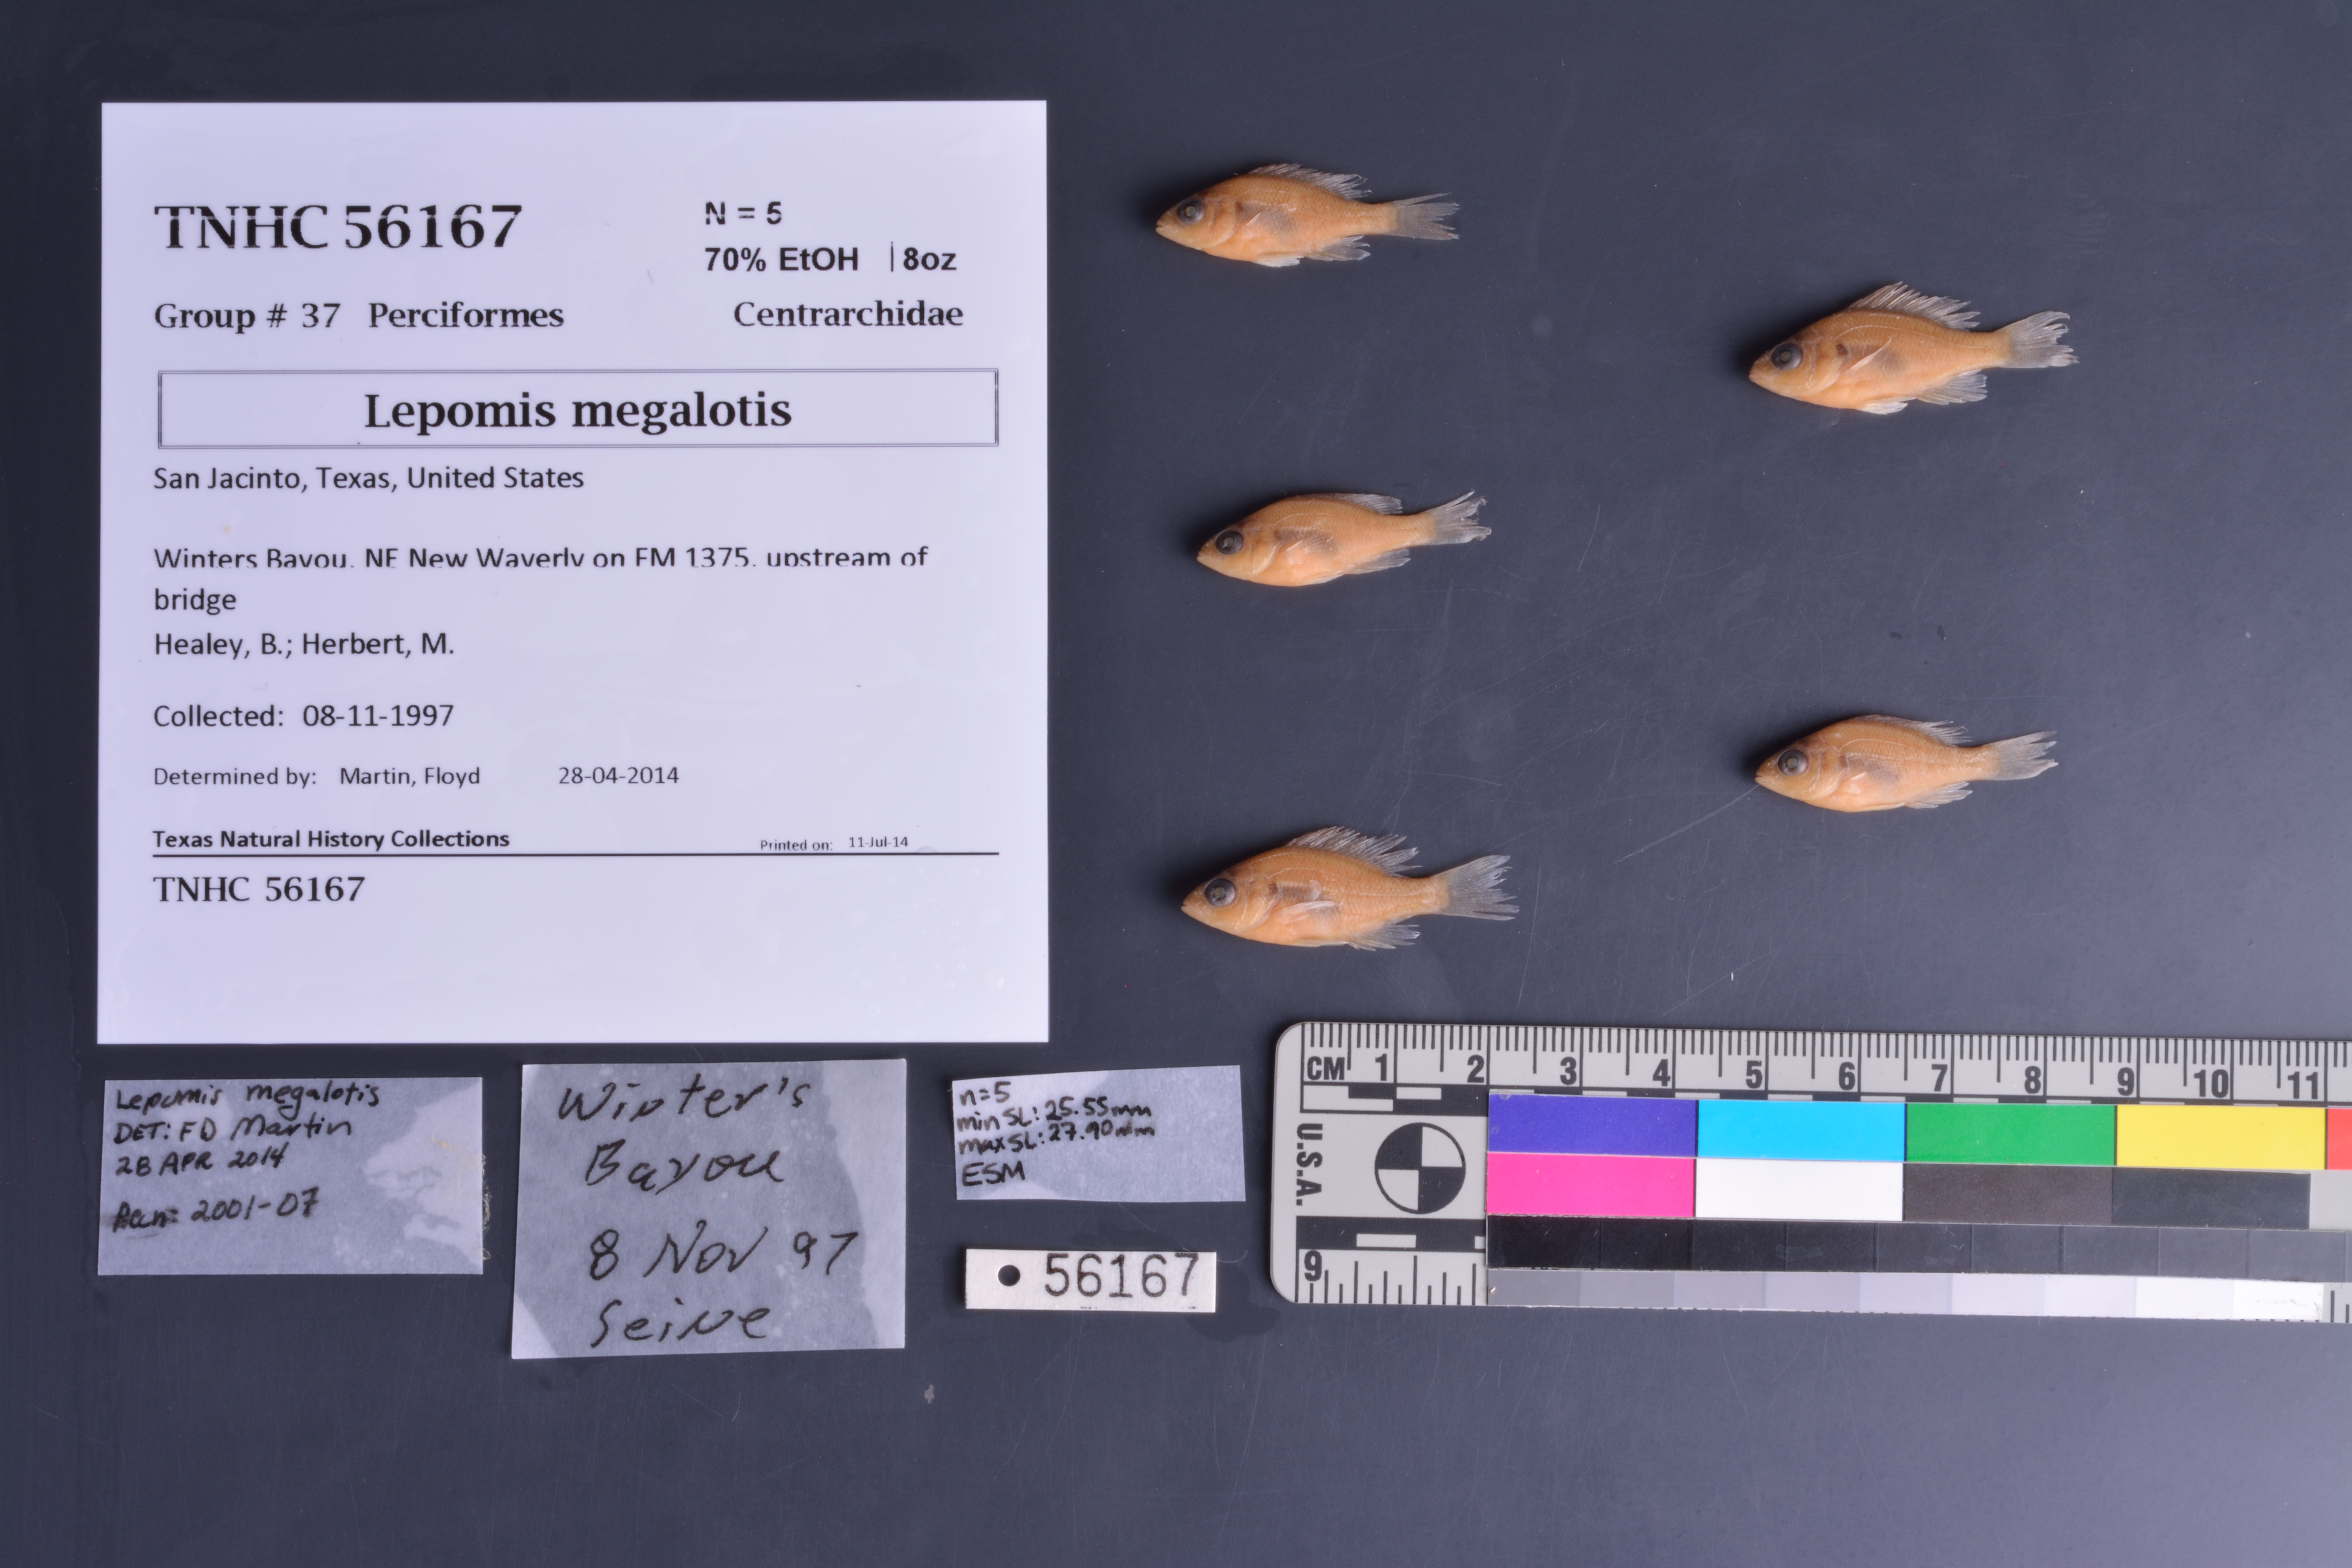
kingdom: Animalia
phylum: Chordata
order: Perciformes
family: Centrarchidae
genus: Lepomis
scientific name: Lepomis megalotis
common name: Longear sunfish
